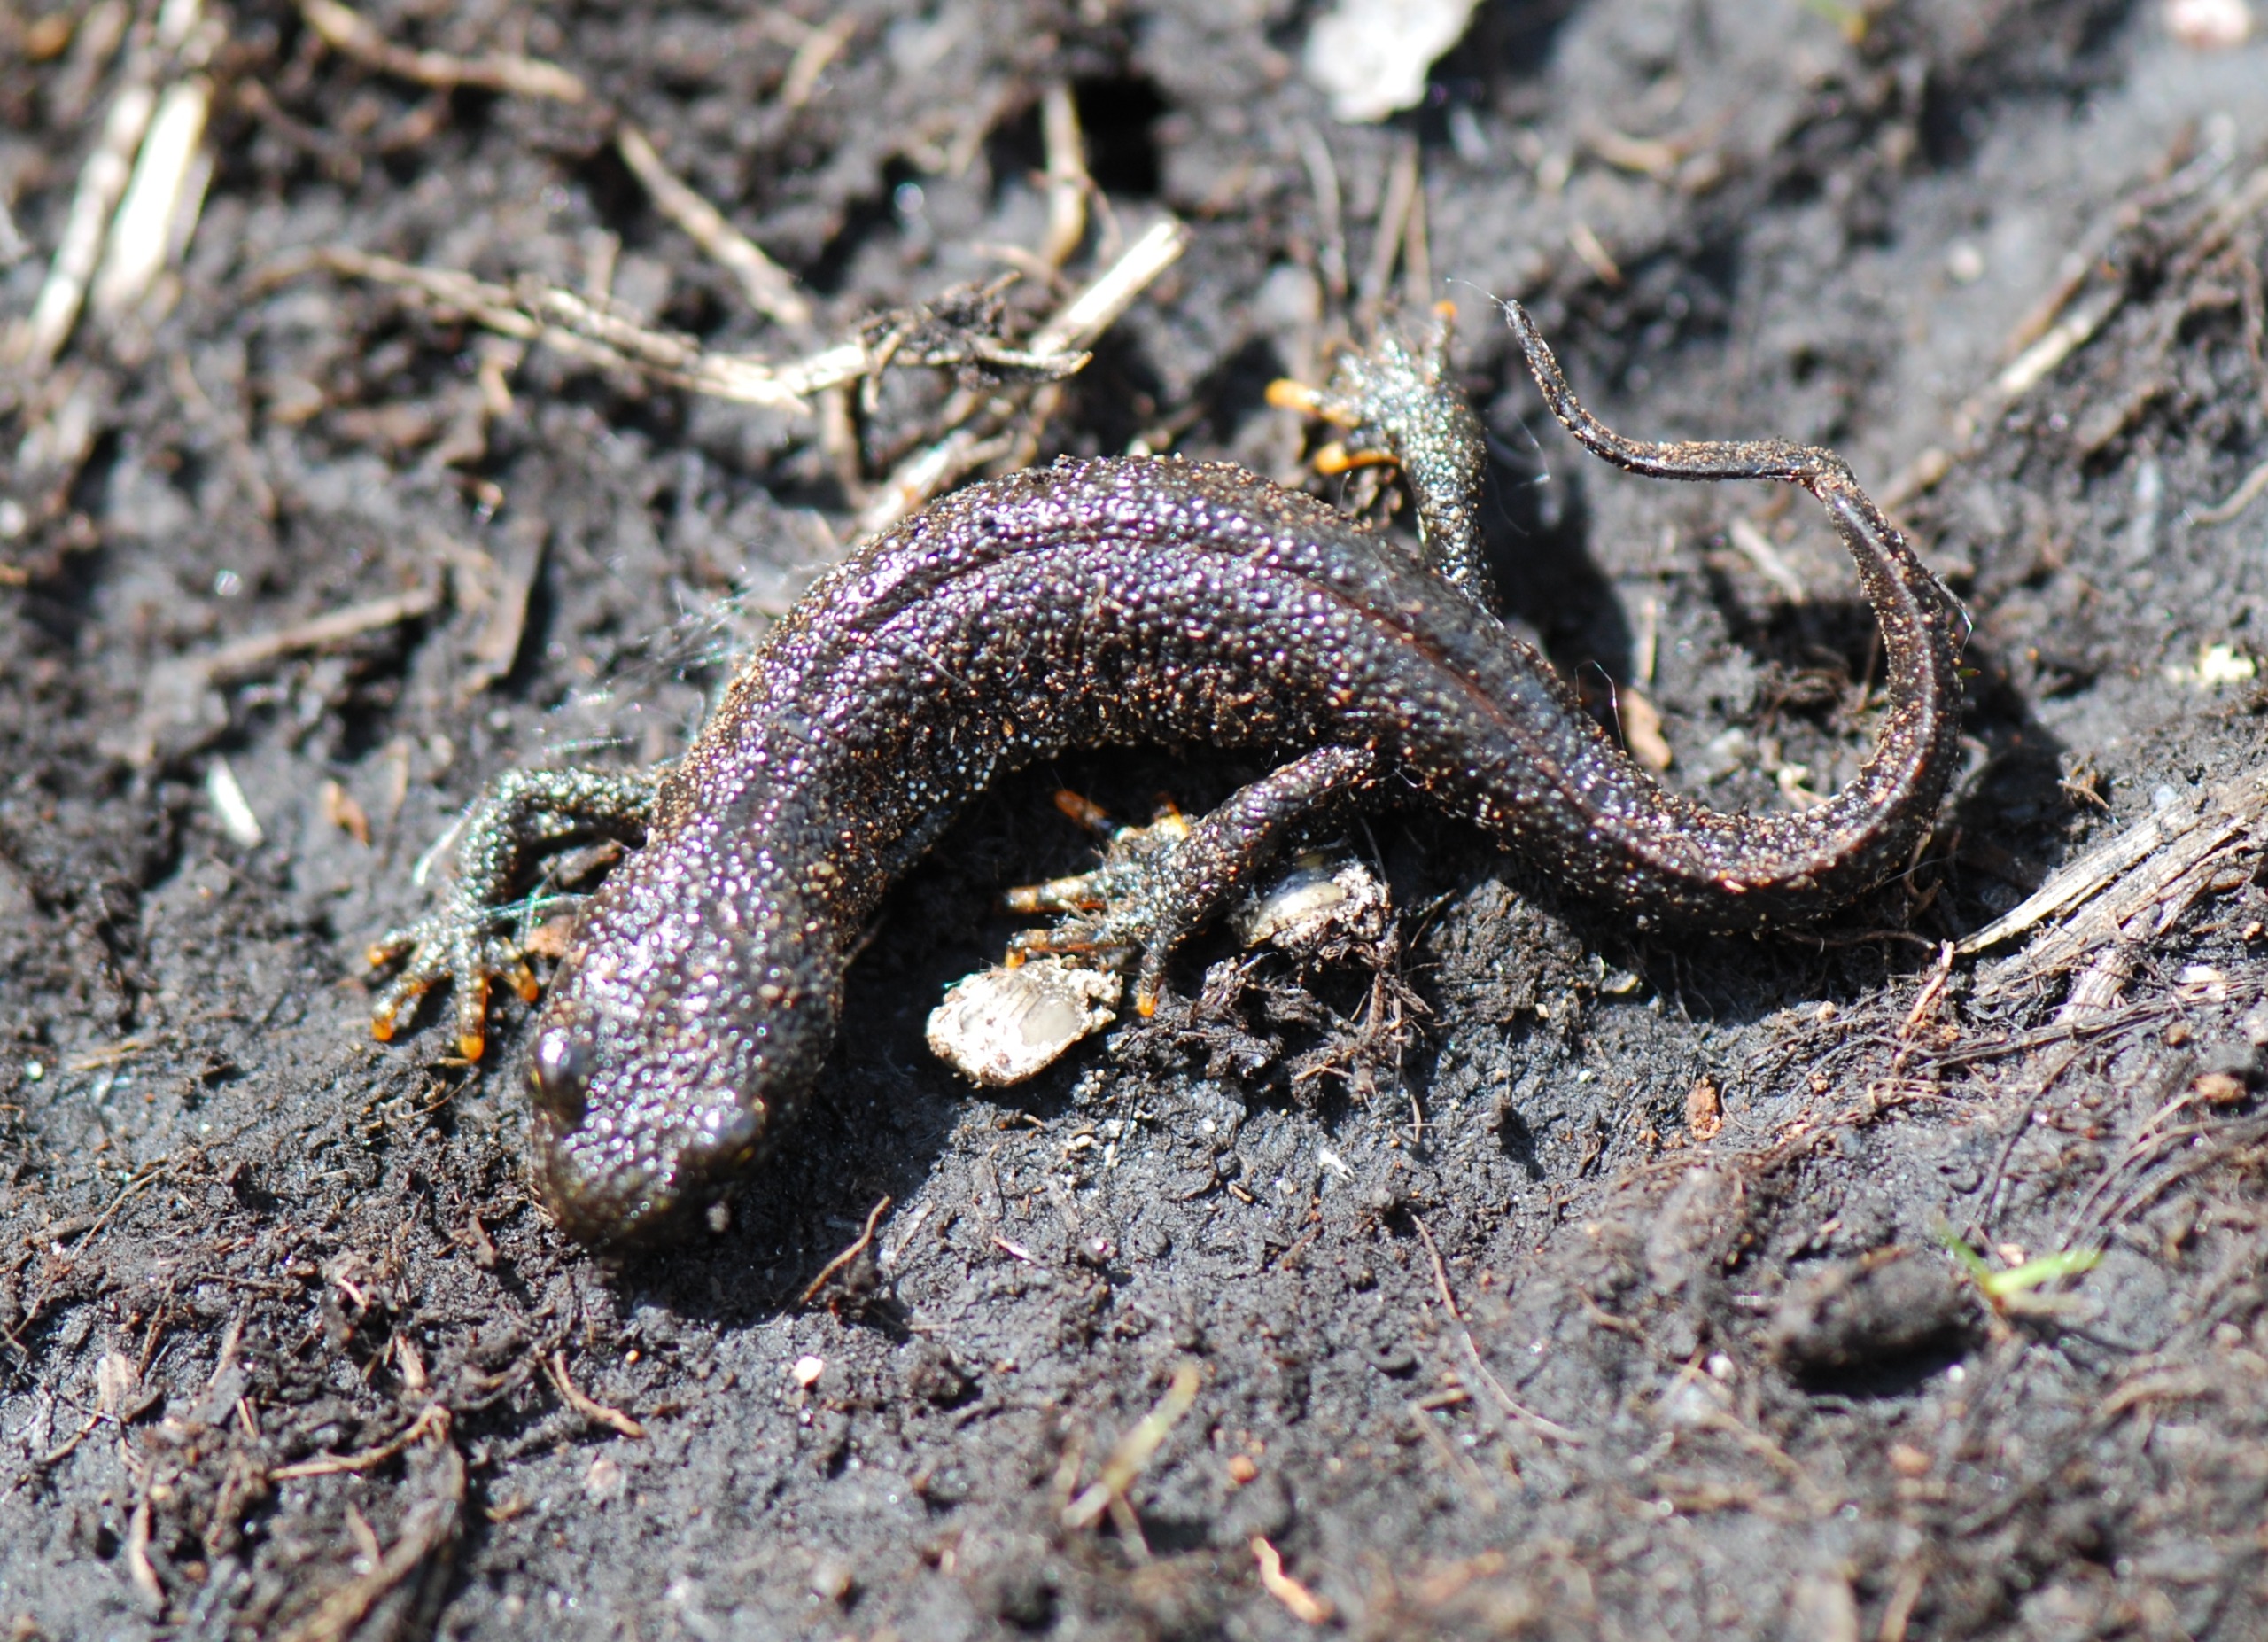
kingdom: Animalia
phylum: Chordata
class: Amphibia
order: Caudata
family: Salamandridae
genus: Triturus
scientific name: Triturus cristatus
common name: Stor vandsalamander
